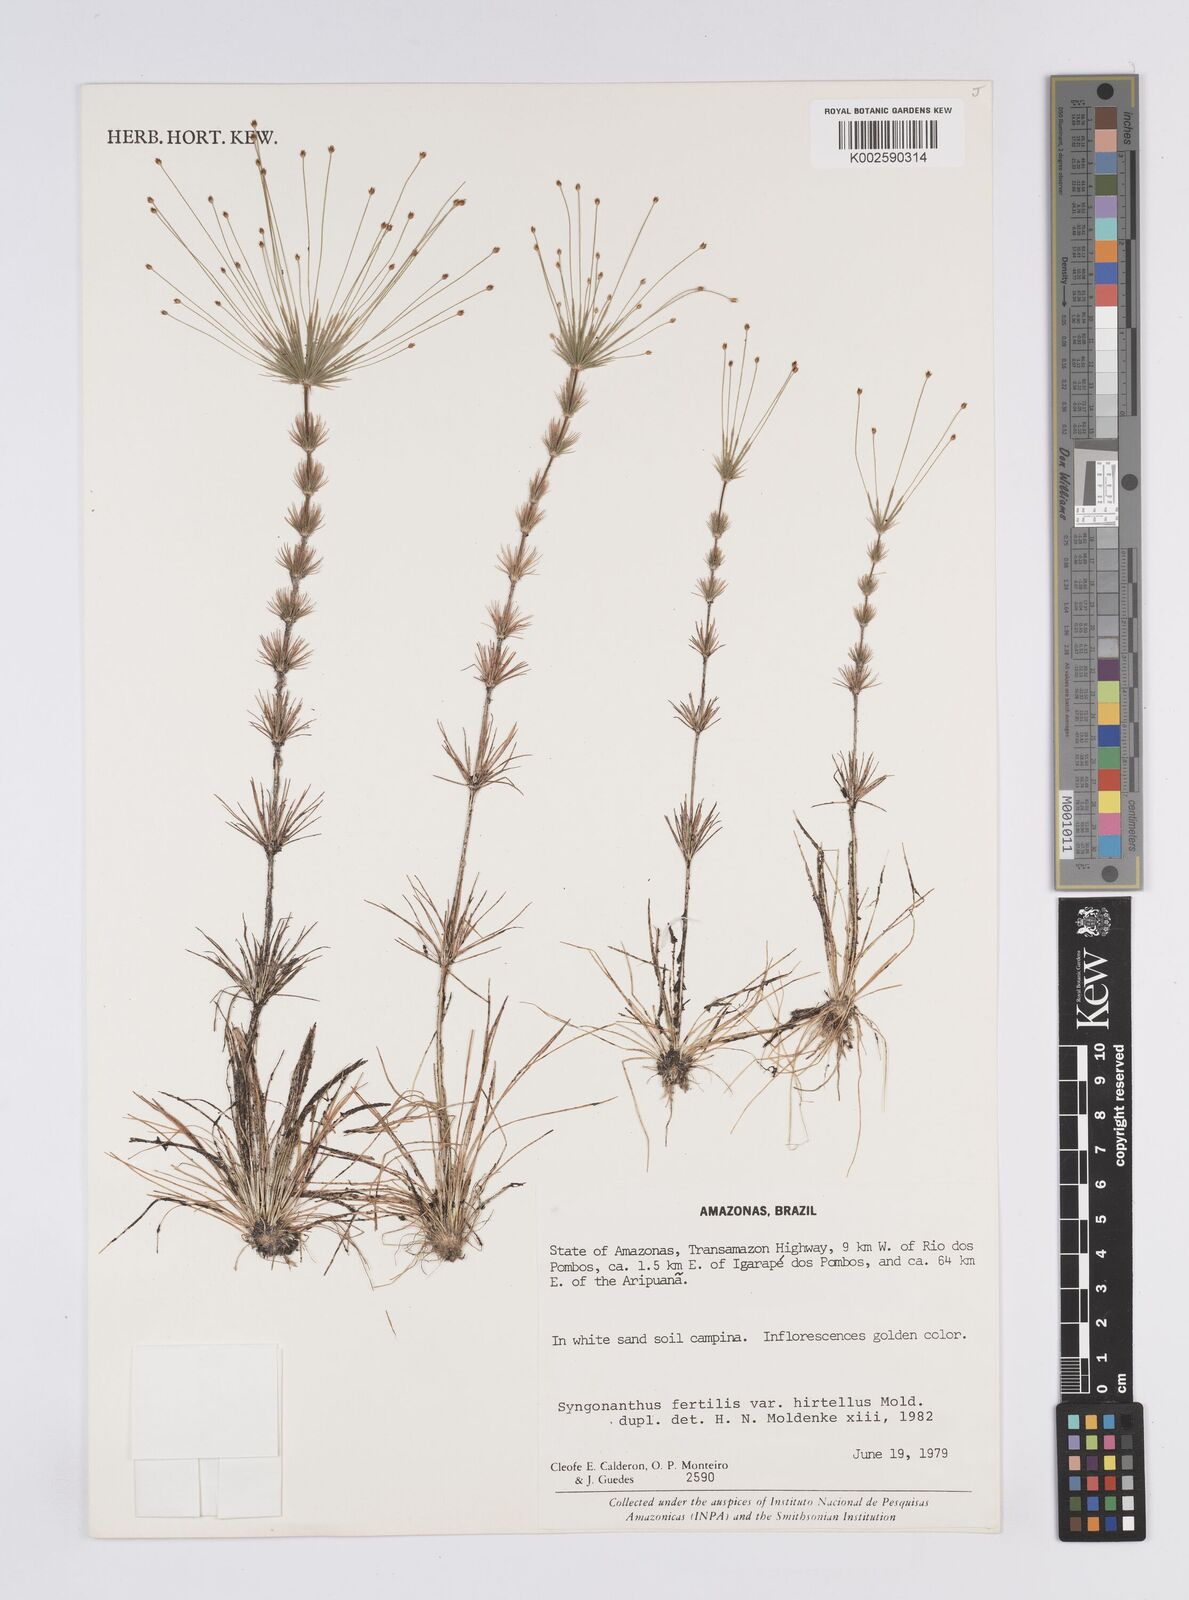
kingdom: Plantae
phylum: Tracheophyta
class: Liliopsida
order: Poales
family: Eriocaulaceae
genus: Syngonanthus
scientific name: Syngonanthus humboldtii
